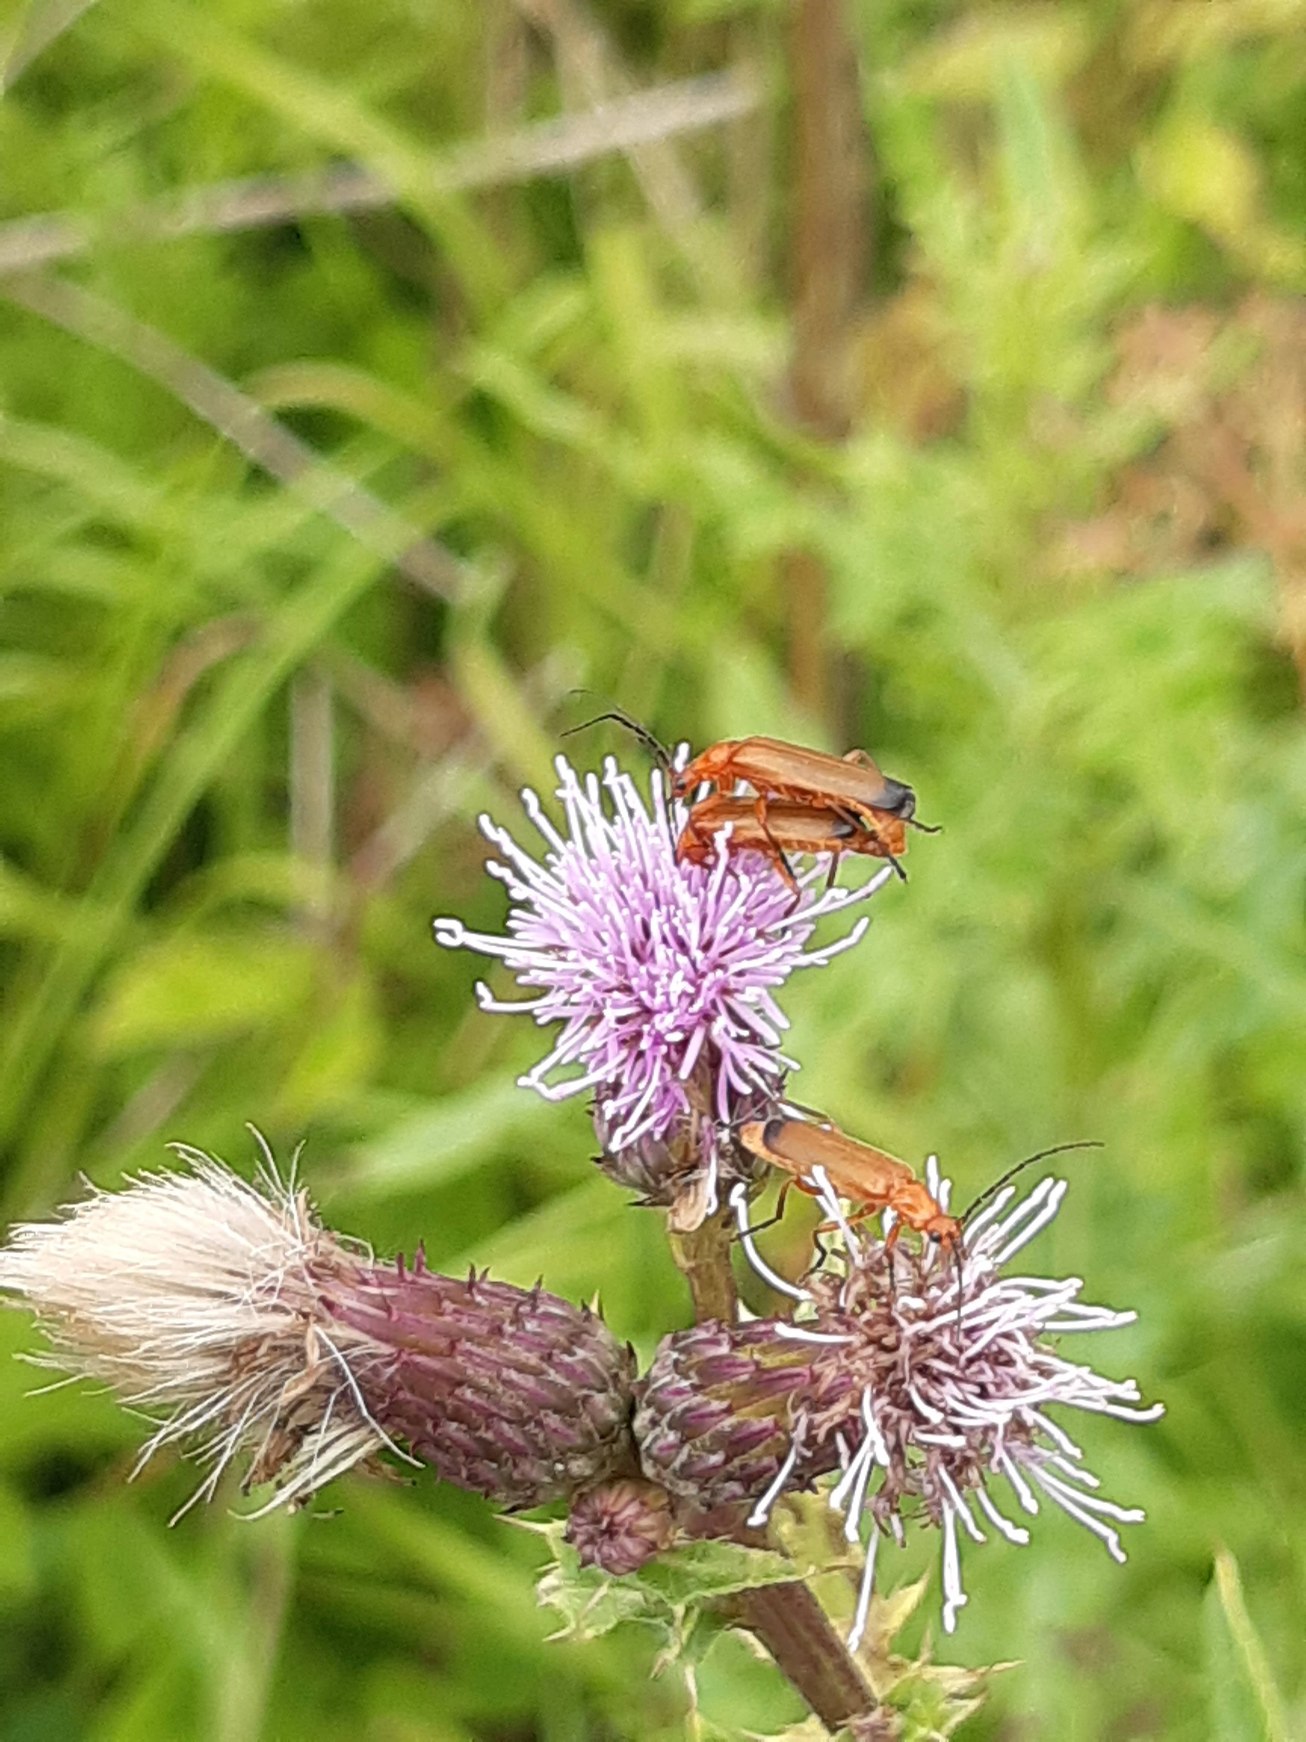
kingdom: Animalia
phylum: Arthropoda
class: Insecta
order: Coleoptera
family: Cantharidae
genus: Rhagonycha
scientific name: Rhagonycha fulva
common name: Præstebille
